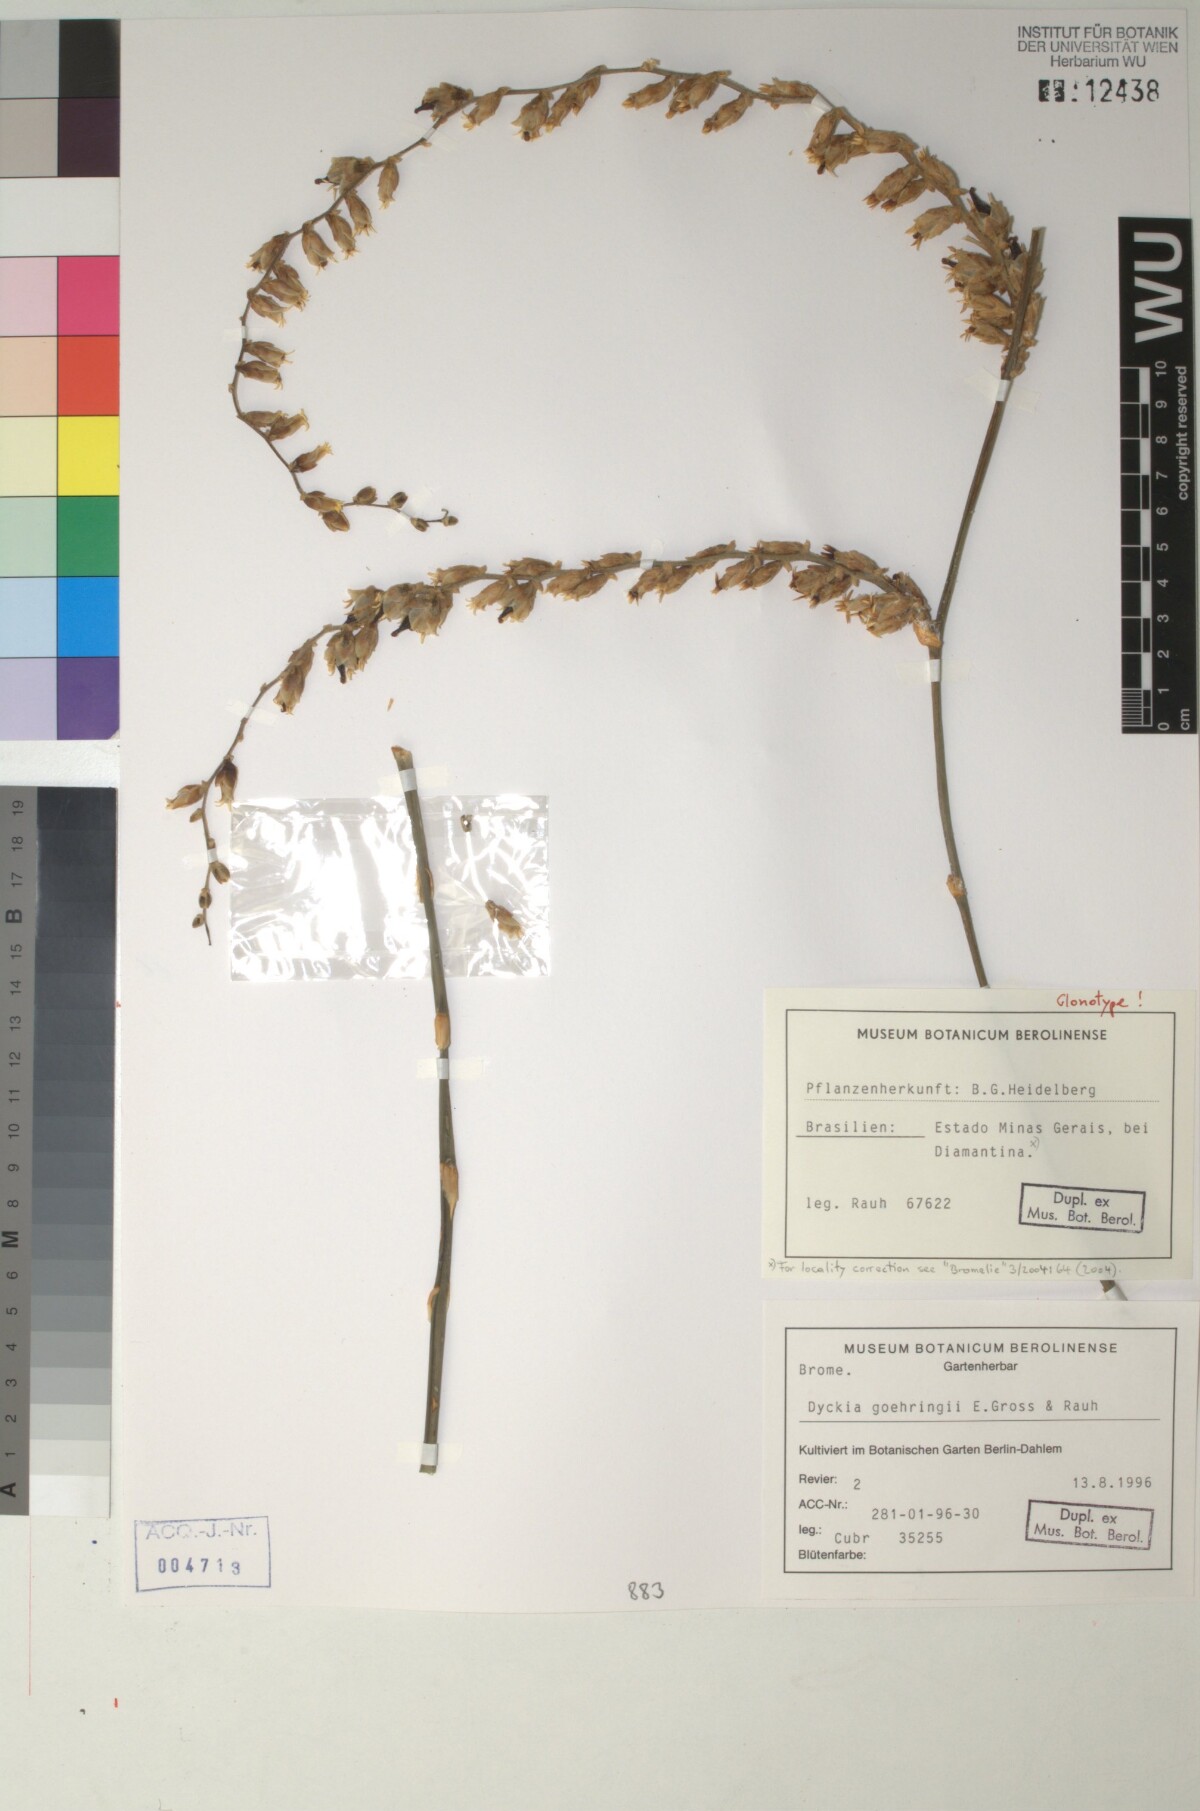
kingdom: Plantae
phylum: Tracheophyta
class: Liliopsida
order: Poales
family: Bromeliaceae
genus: Dyckia
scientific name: Dyckia goehringii
